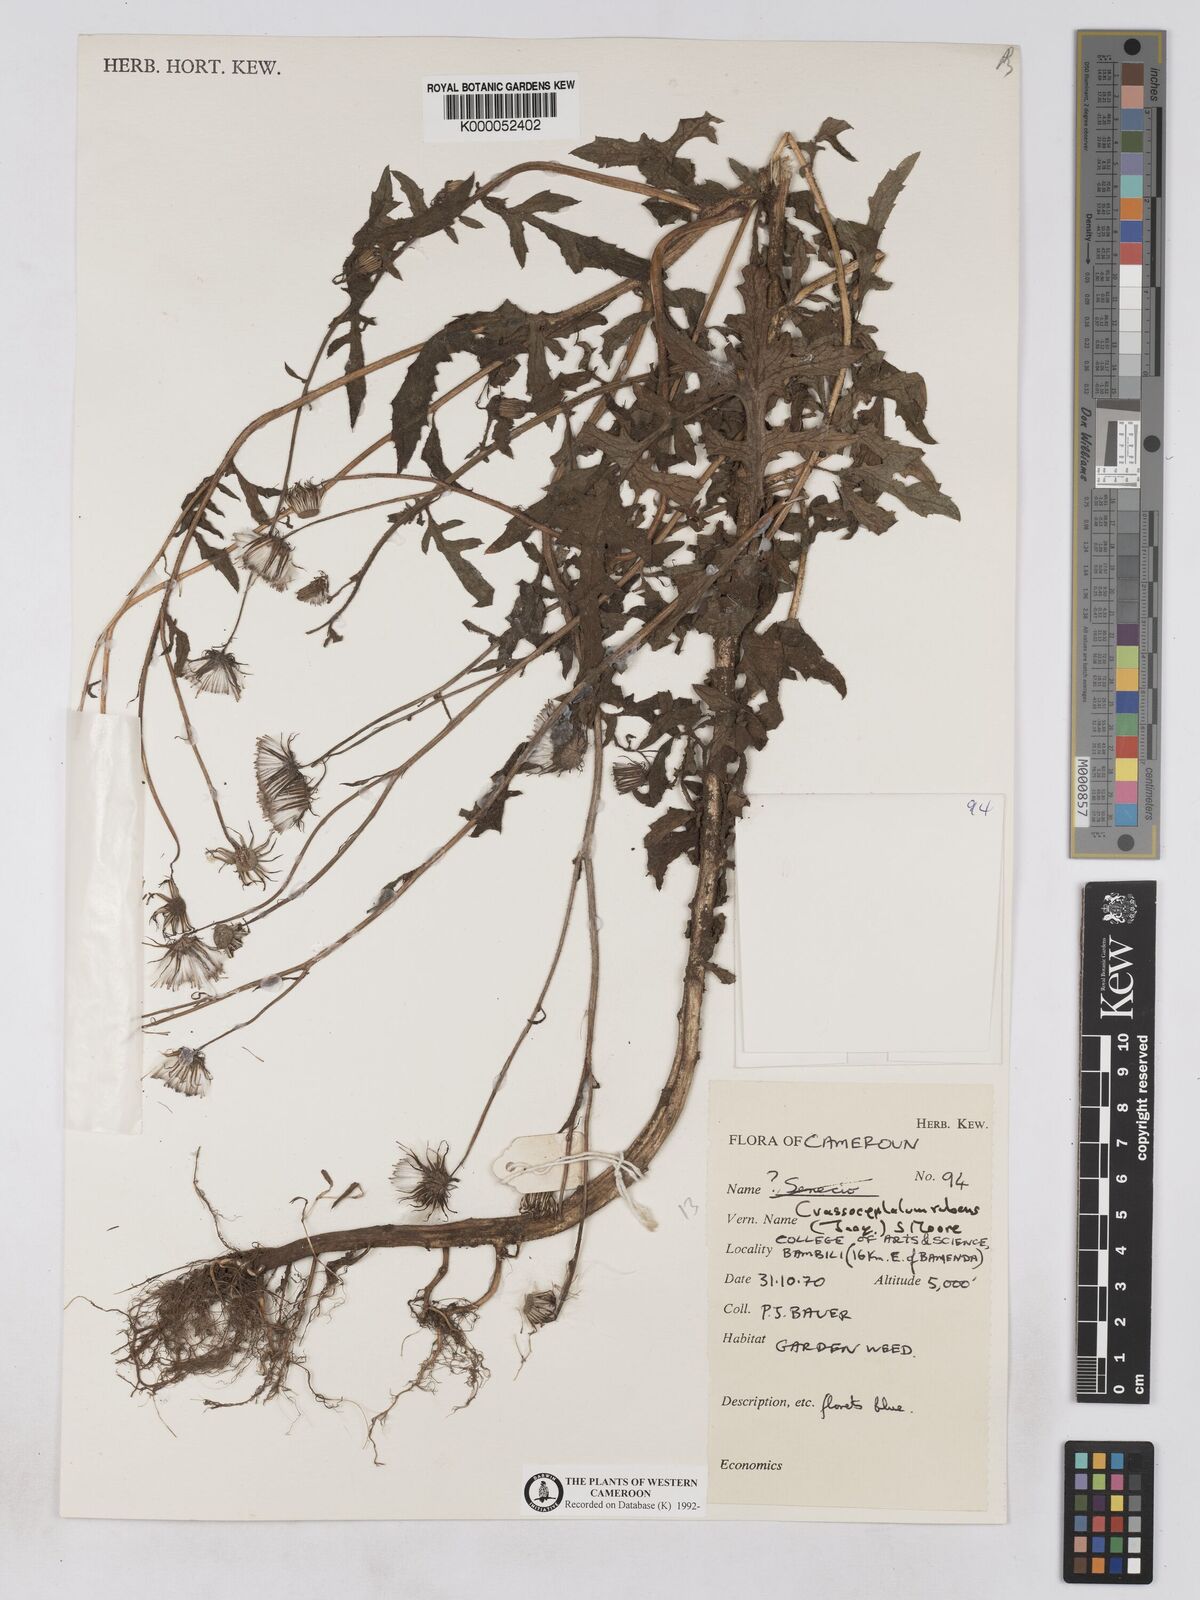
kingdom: Plantae
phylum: Tracheophyta
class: Magnoliopsida
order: Asterales
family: Asteraceae
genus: Crassocephalum
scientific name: Crassocephalum rubens
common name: Yoruban bologi
